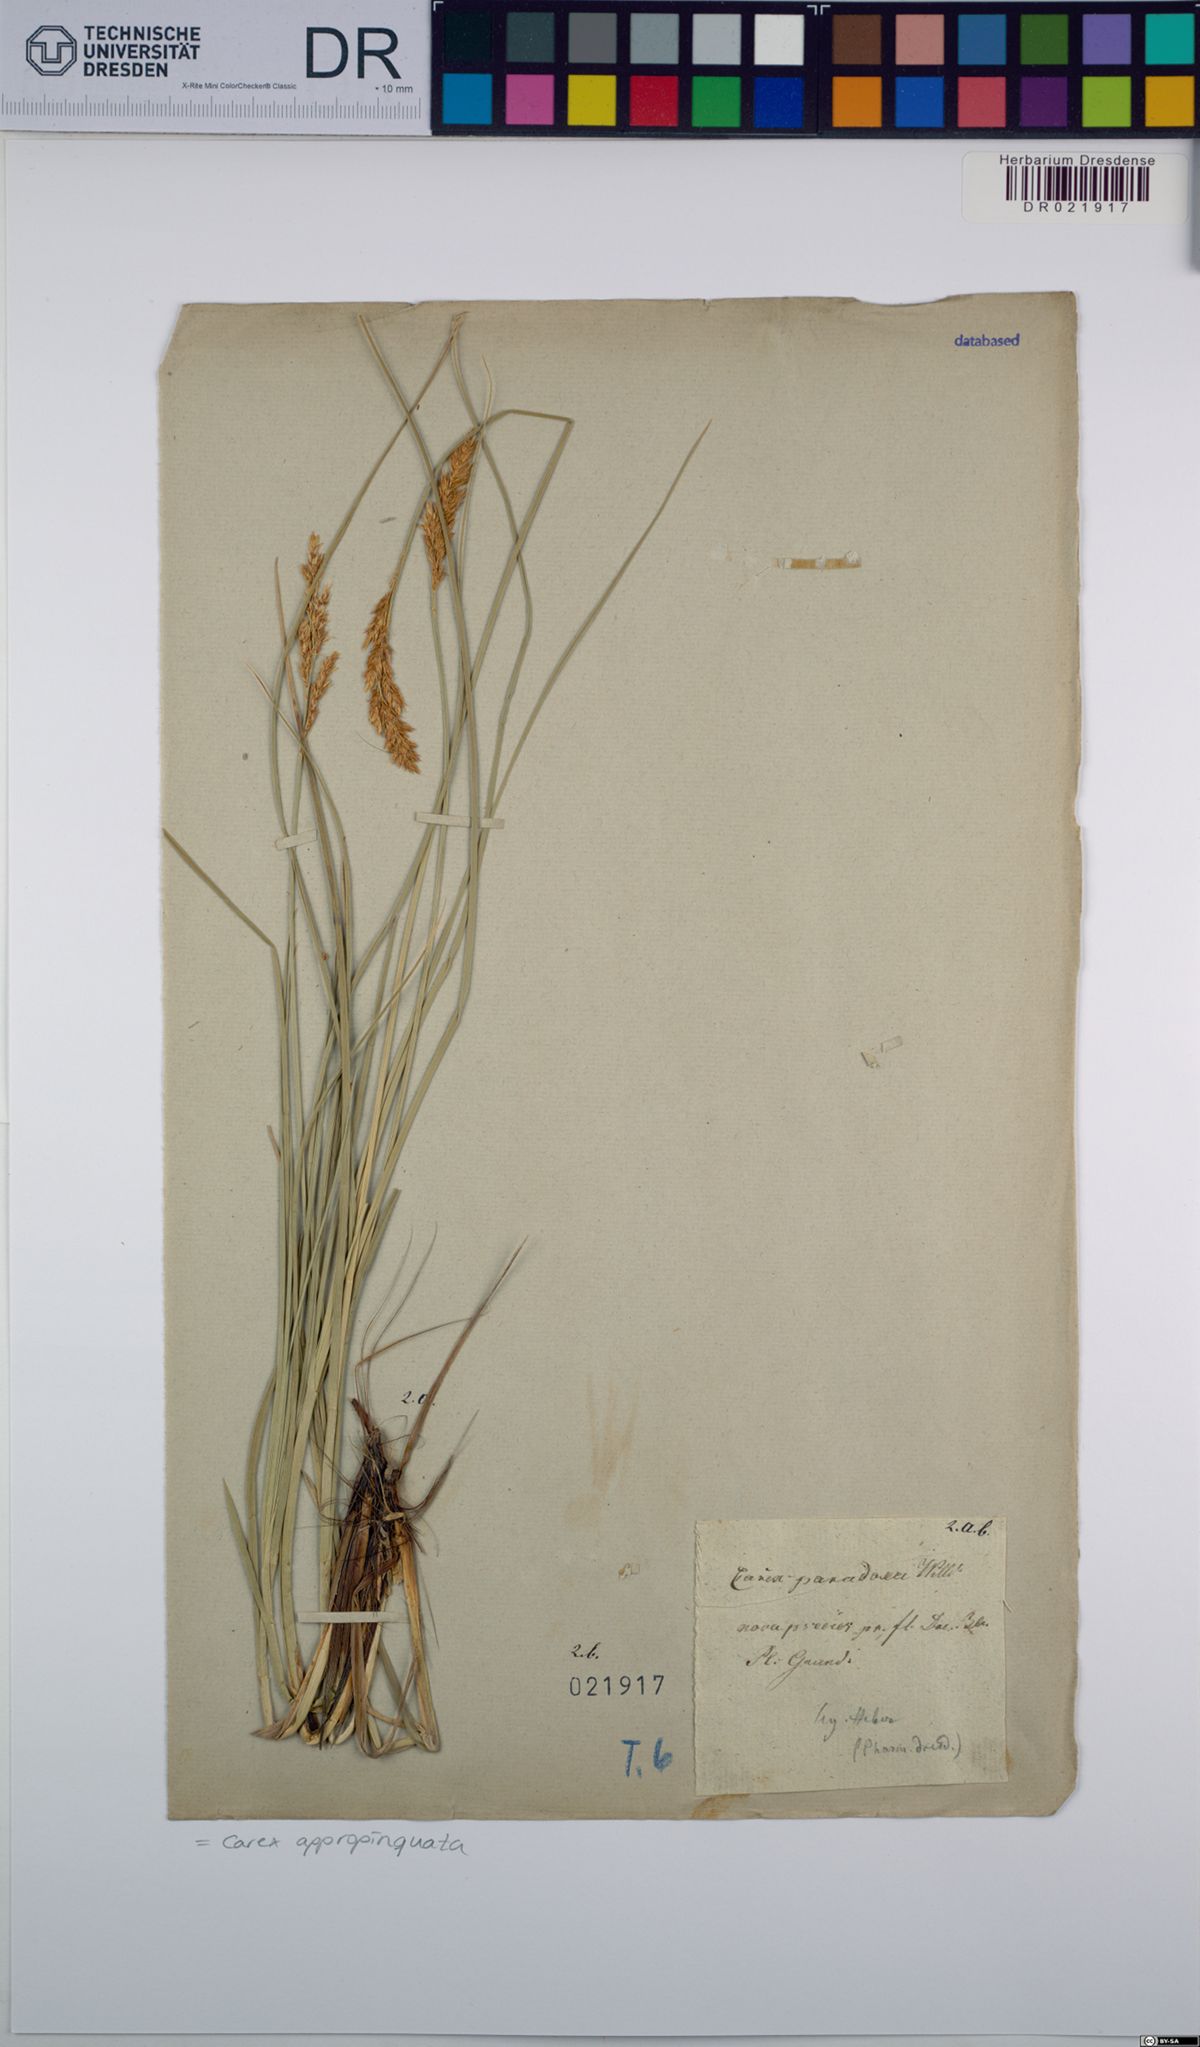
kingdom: Plantae
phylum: Tracheophyta
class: Liliopsida
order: Poales
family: Cyperaceae
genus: Carex
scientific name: Carex appropinquata
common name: Fibrous tussock-sedge
